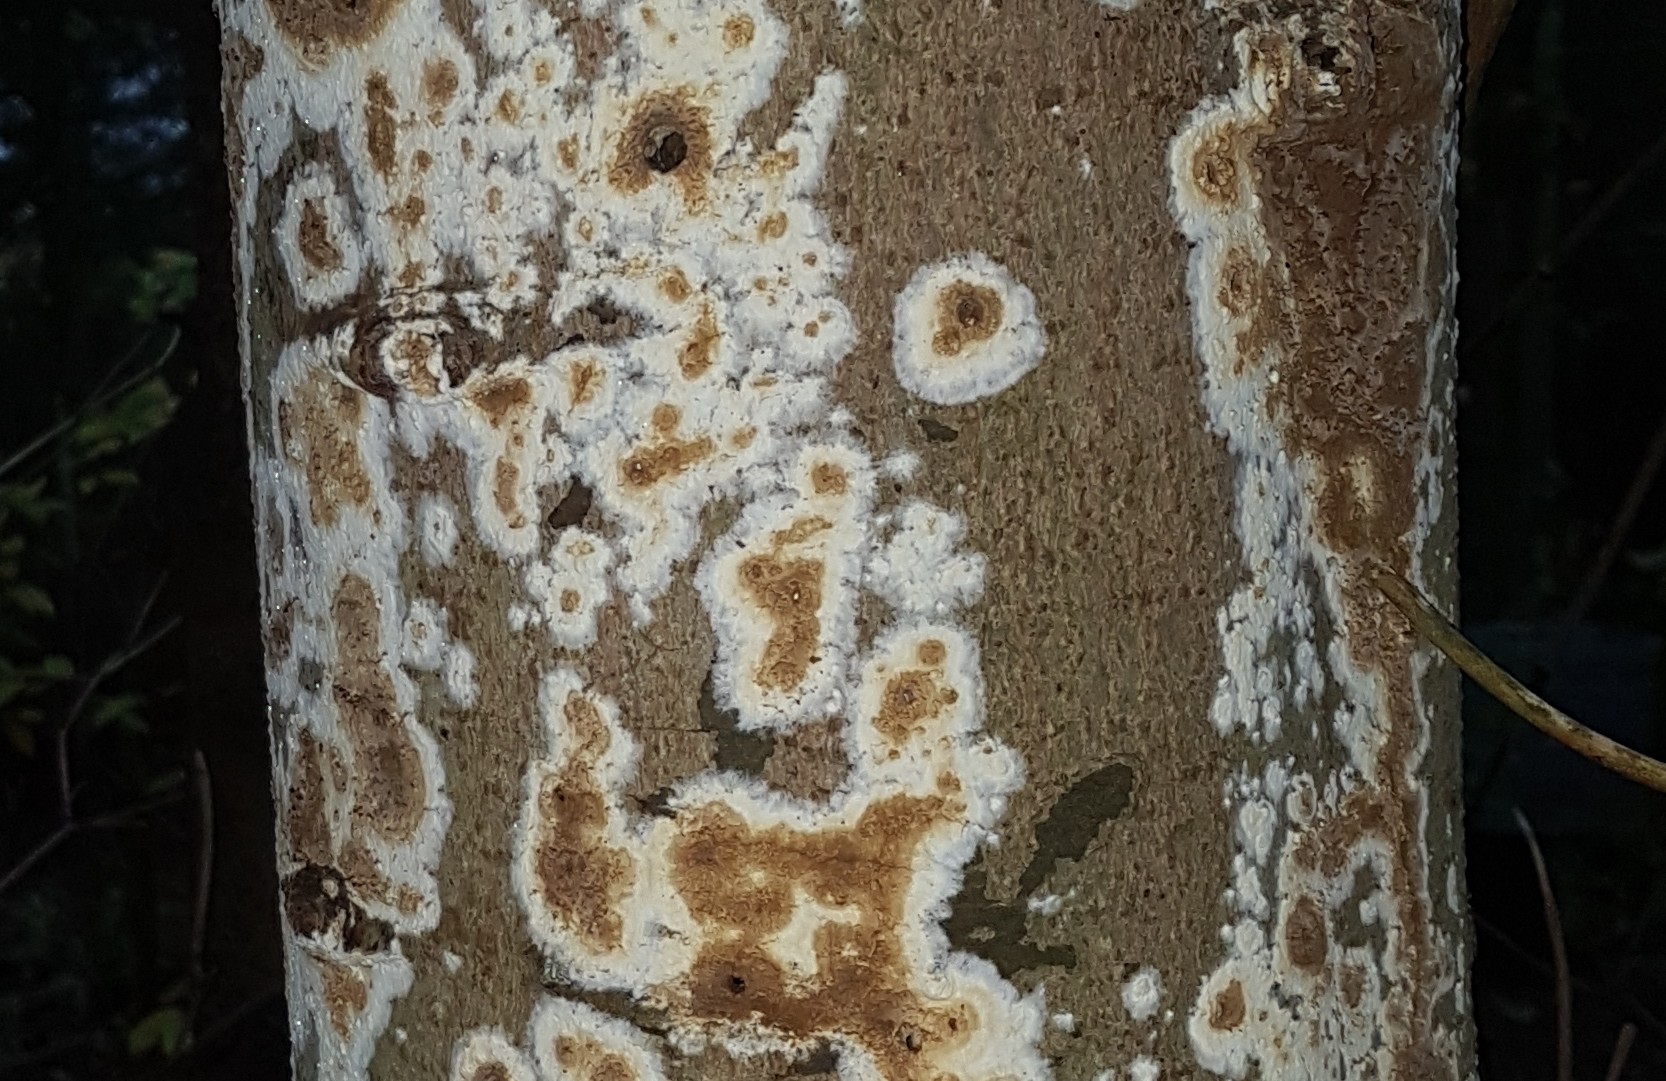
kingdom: Fungi
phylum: Basidiomycota
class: Agaricomycetes
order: Boletales
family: Coniophoraceae
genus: Coniophora
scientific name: Coniophora puteana
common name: gul tømmersvamp
